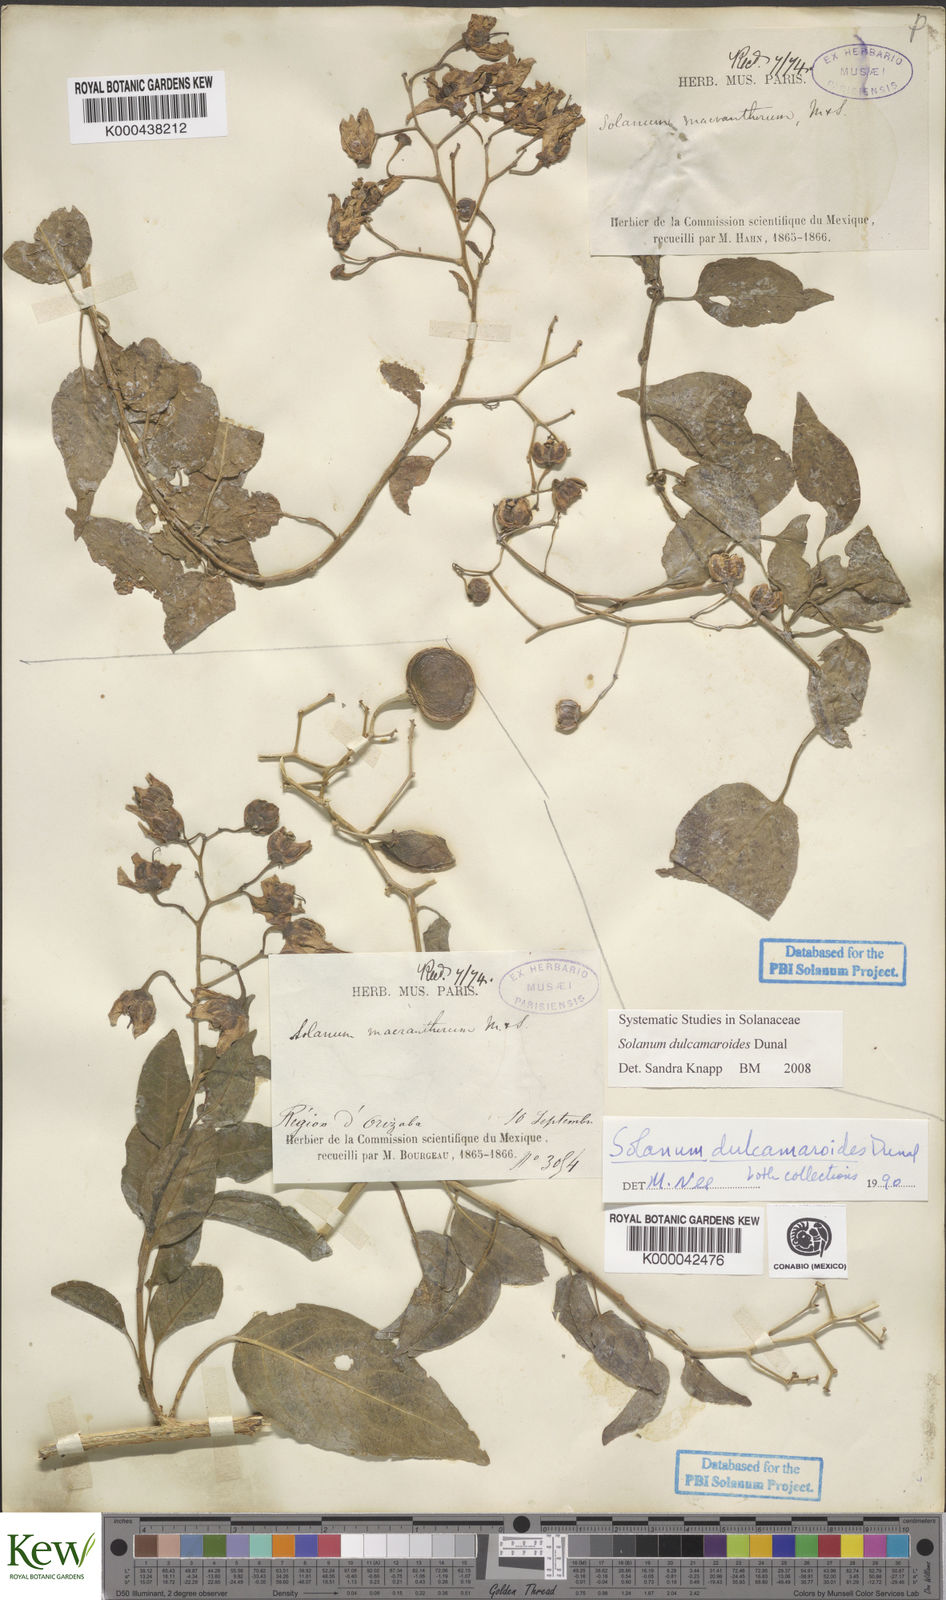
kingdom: Plantae
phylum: Tracheophyta
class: Magnoliopsida
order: Solanales
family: Solanaceae
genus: Solanum
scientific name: Solanum dulcamaroides
